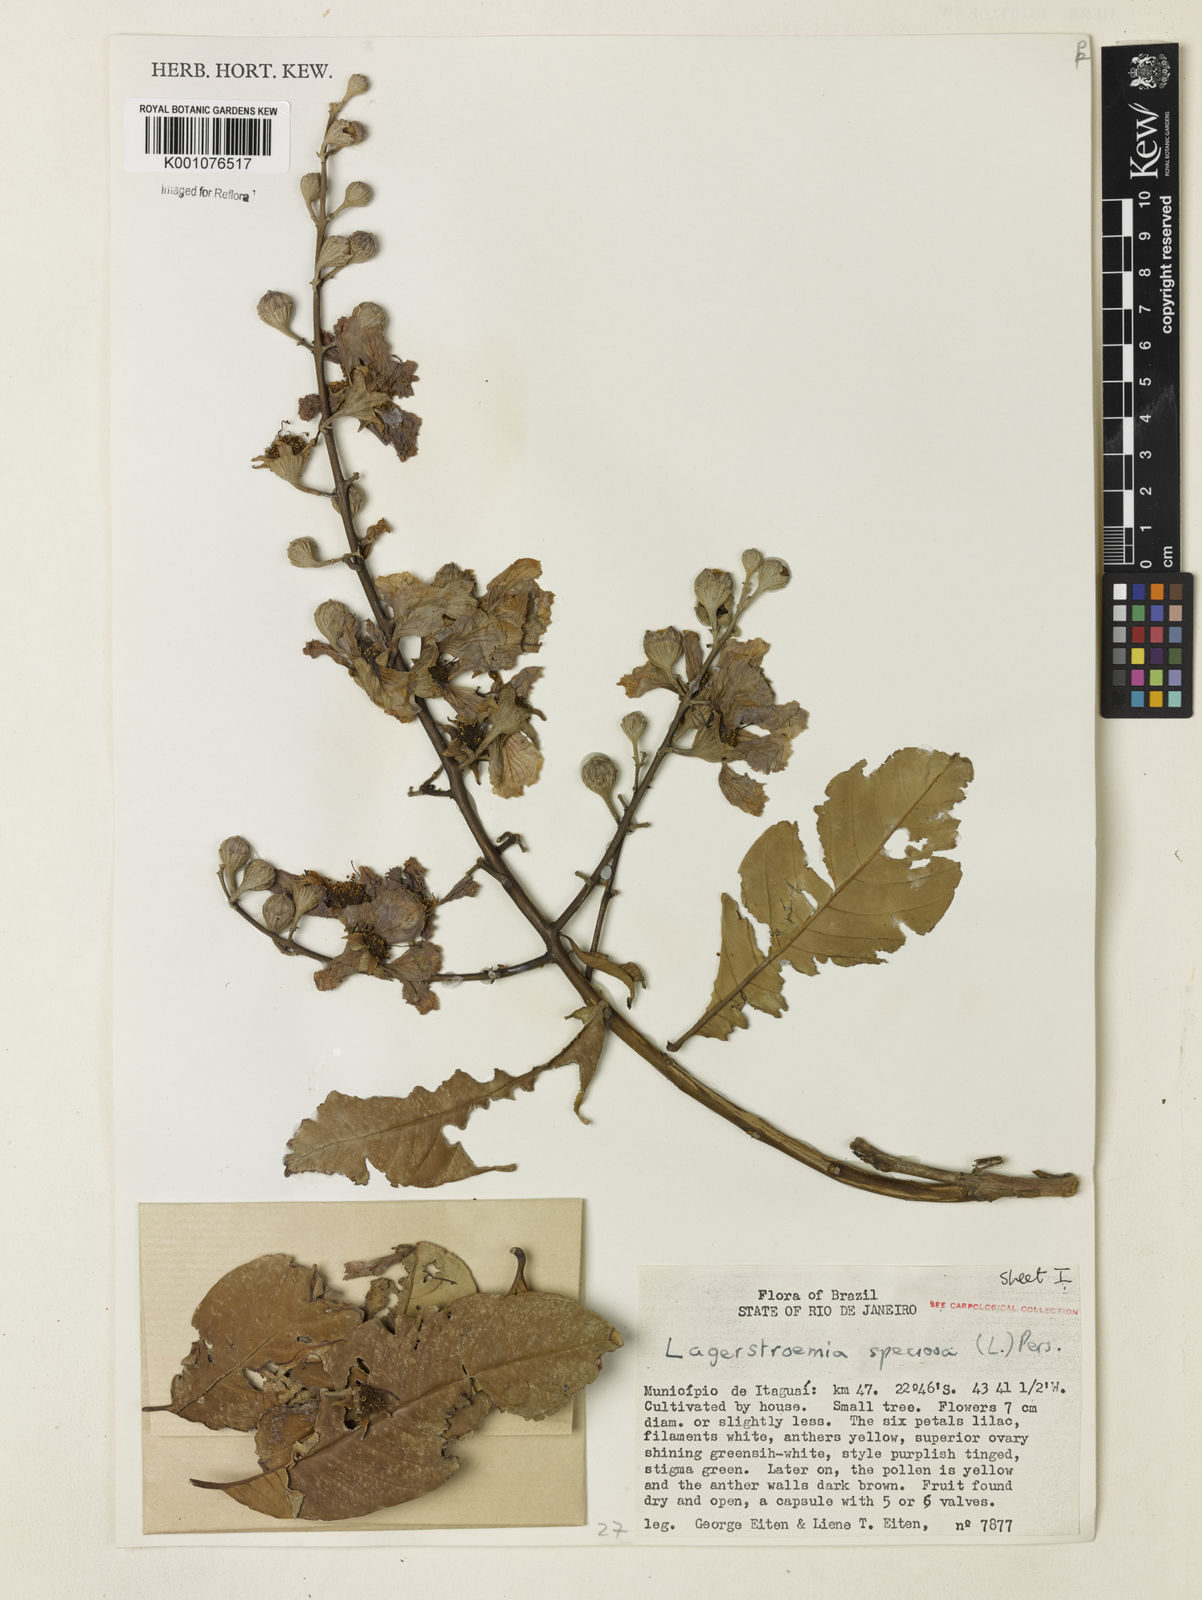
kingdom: Plantae
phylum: Tracheophyta
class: Magnoliopsida
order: Myrtales
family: Lythraceae
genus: Lagerstroemia
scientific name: Lagerstroemia speciosa
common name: Queen's crape-myrtle
